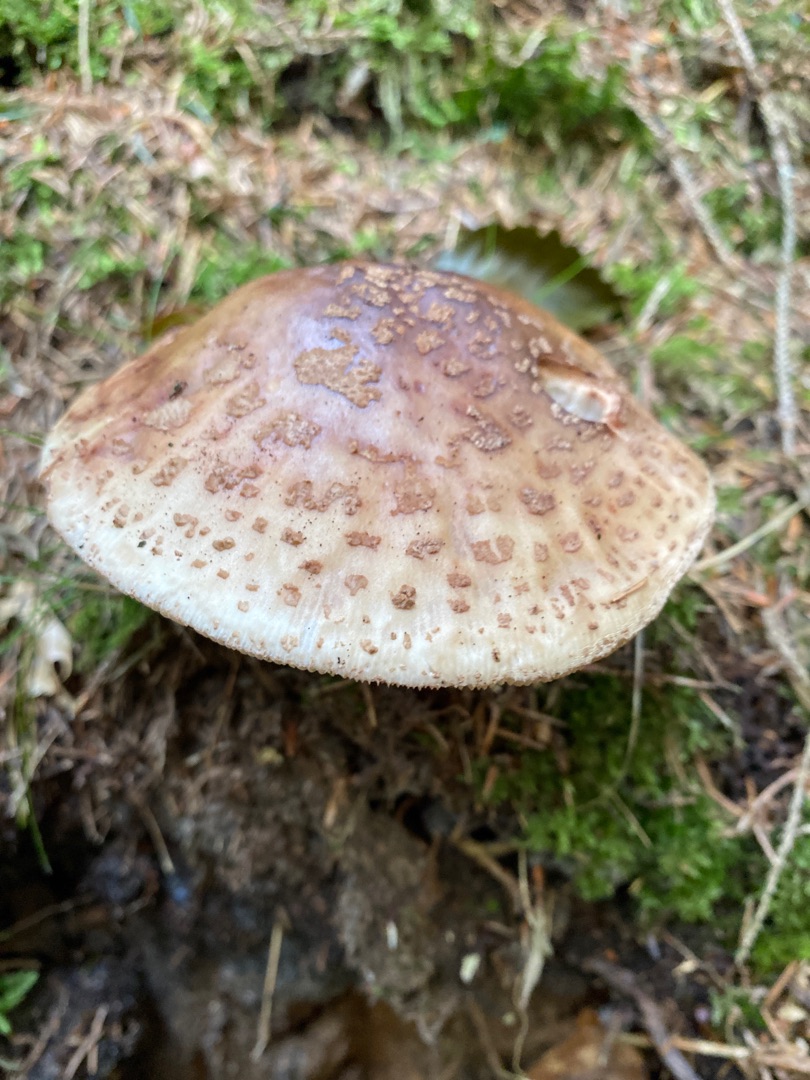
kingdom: Fungi
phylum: Basidiomycota
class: Agaricomycetes
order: Agaricales
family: Amanitaceae
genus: Amanita
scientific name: Amanita rubescens
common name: Rødmende fluesvamp
